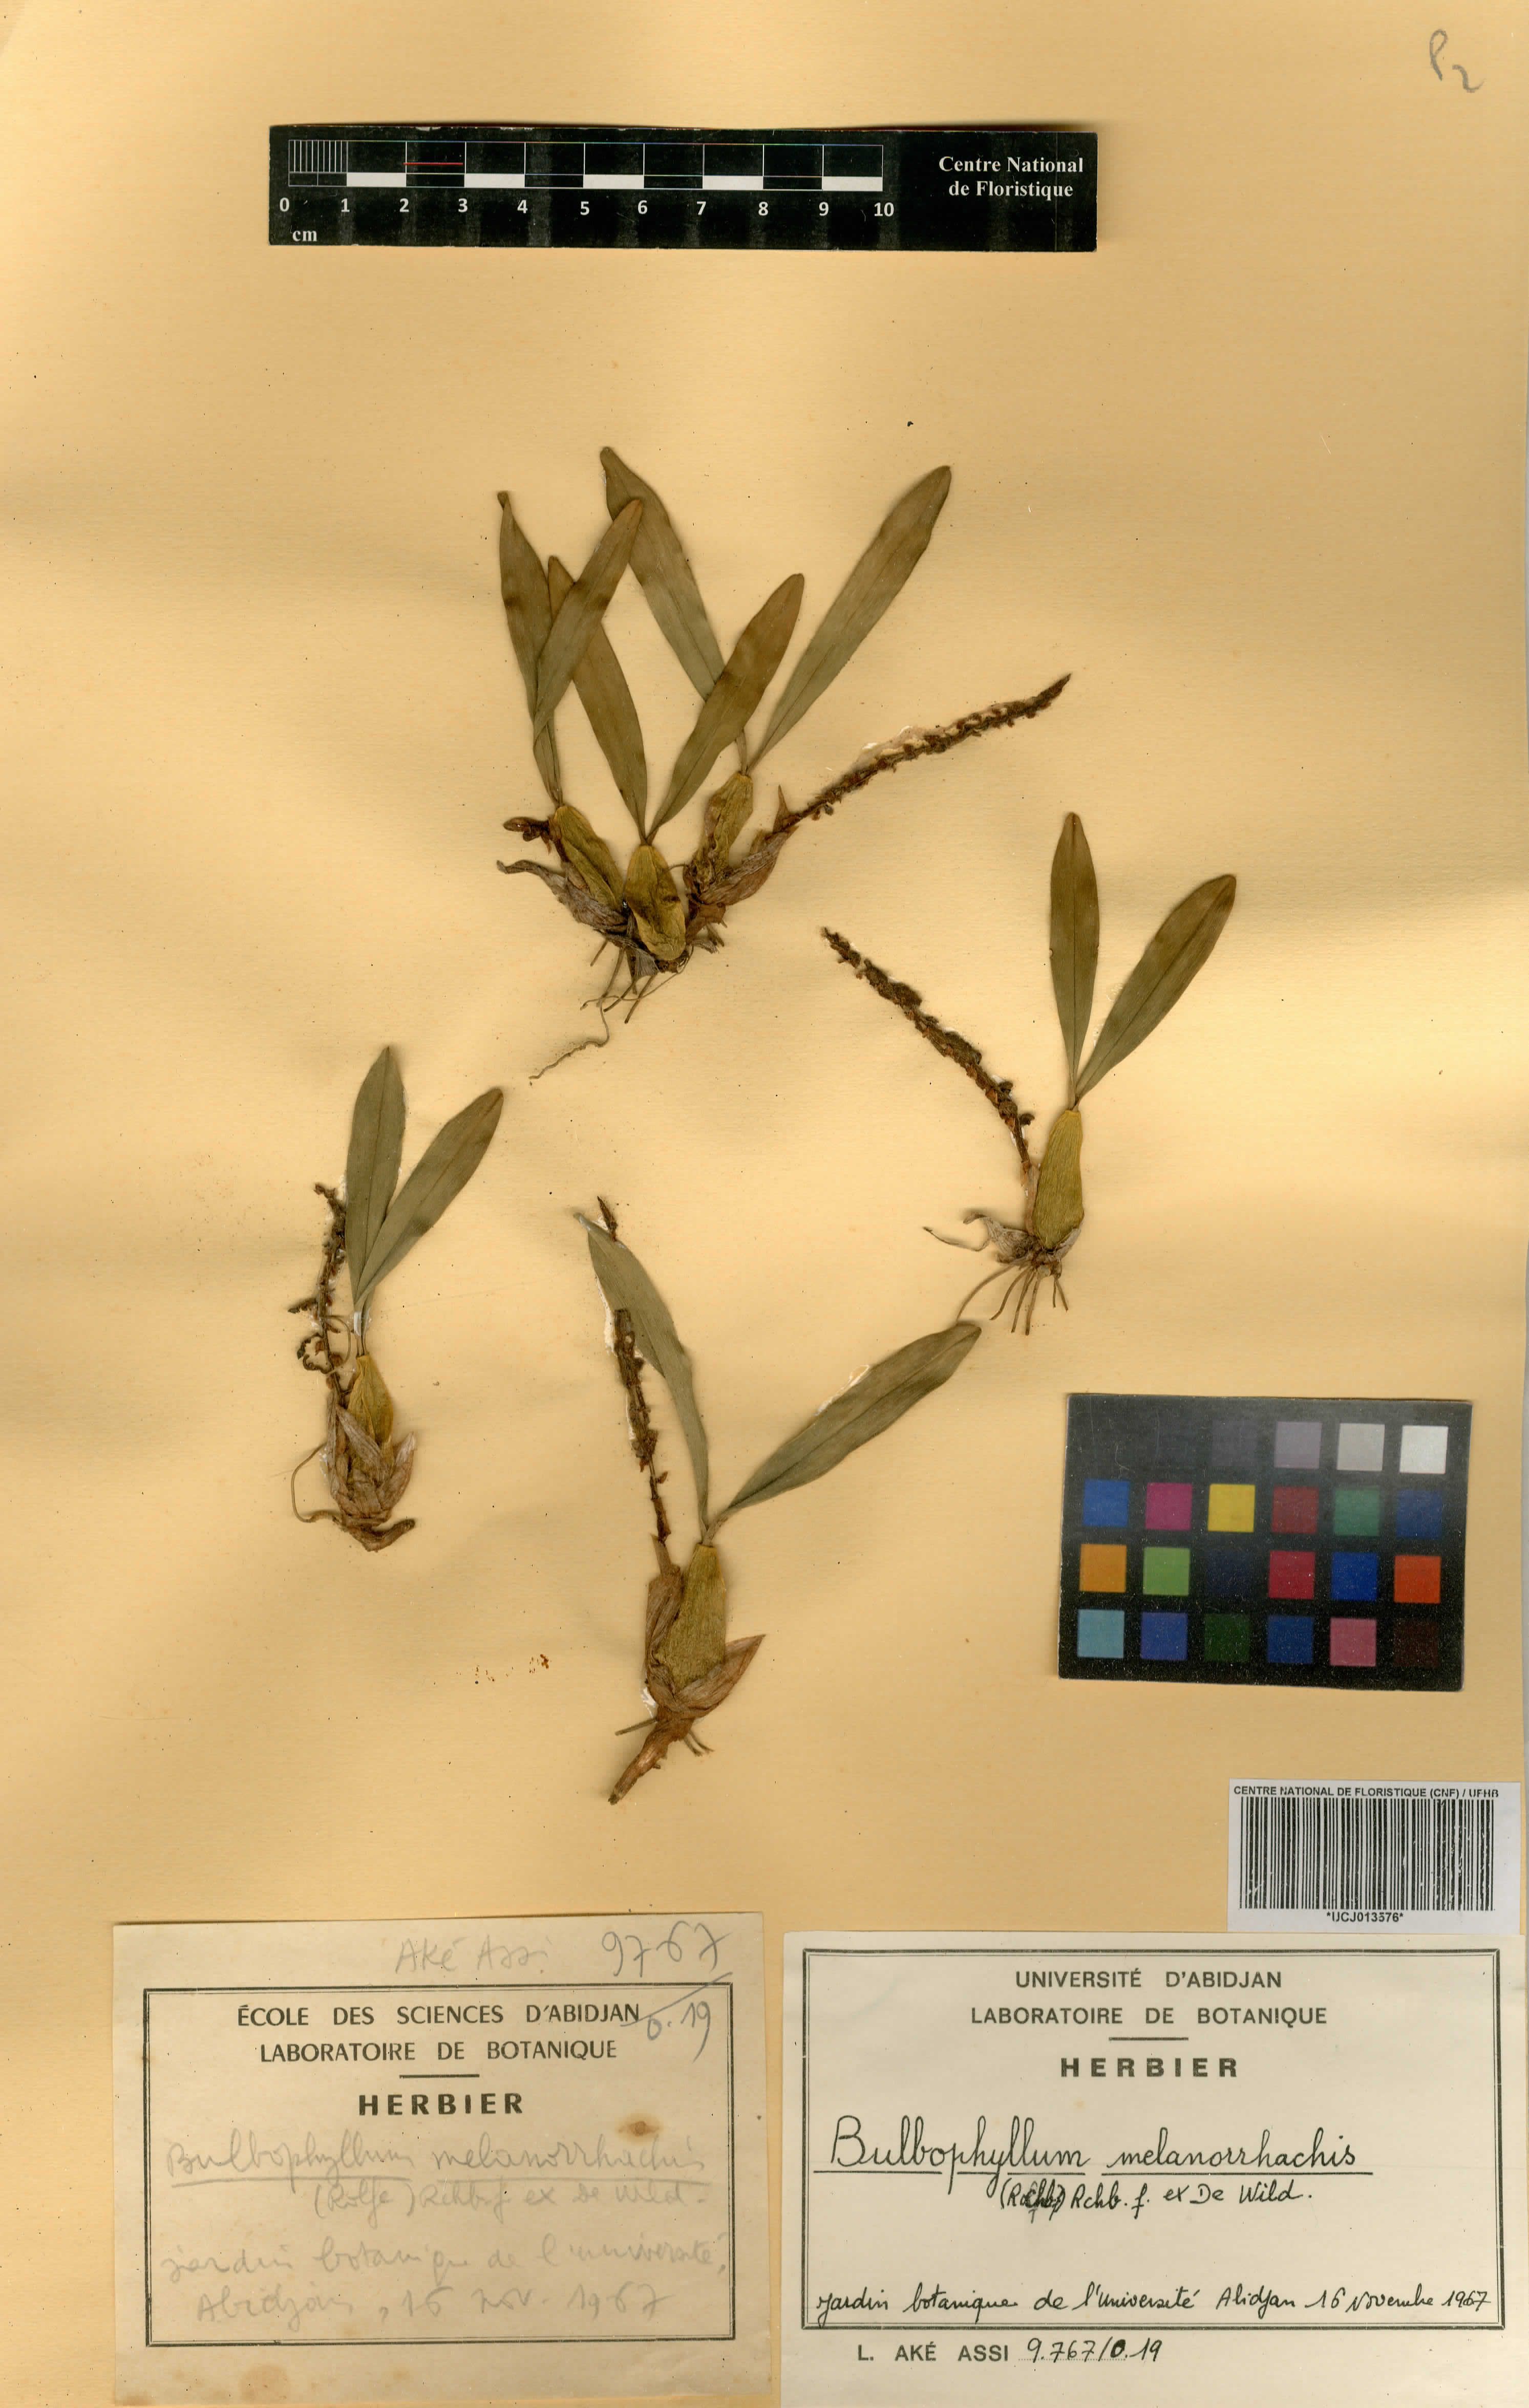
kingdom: Plantae
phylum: Tracheophyta
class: Liliopsida
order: Asparagales
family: Orchidaceae
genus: Bulbophyllum
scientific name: Bulbophyllum falcatum
